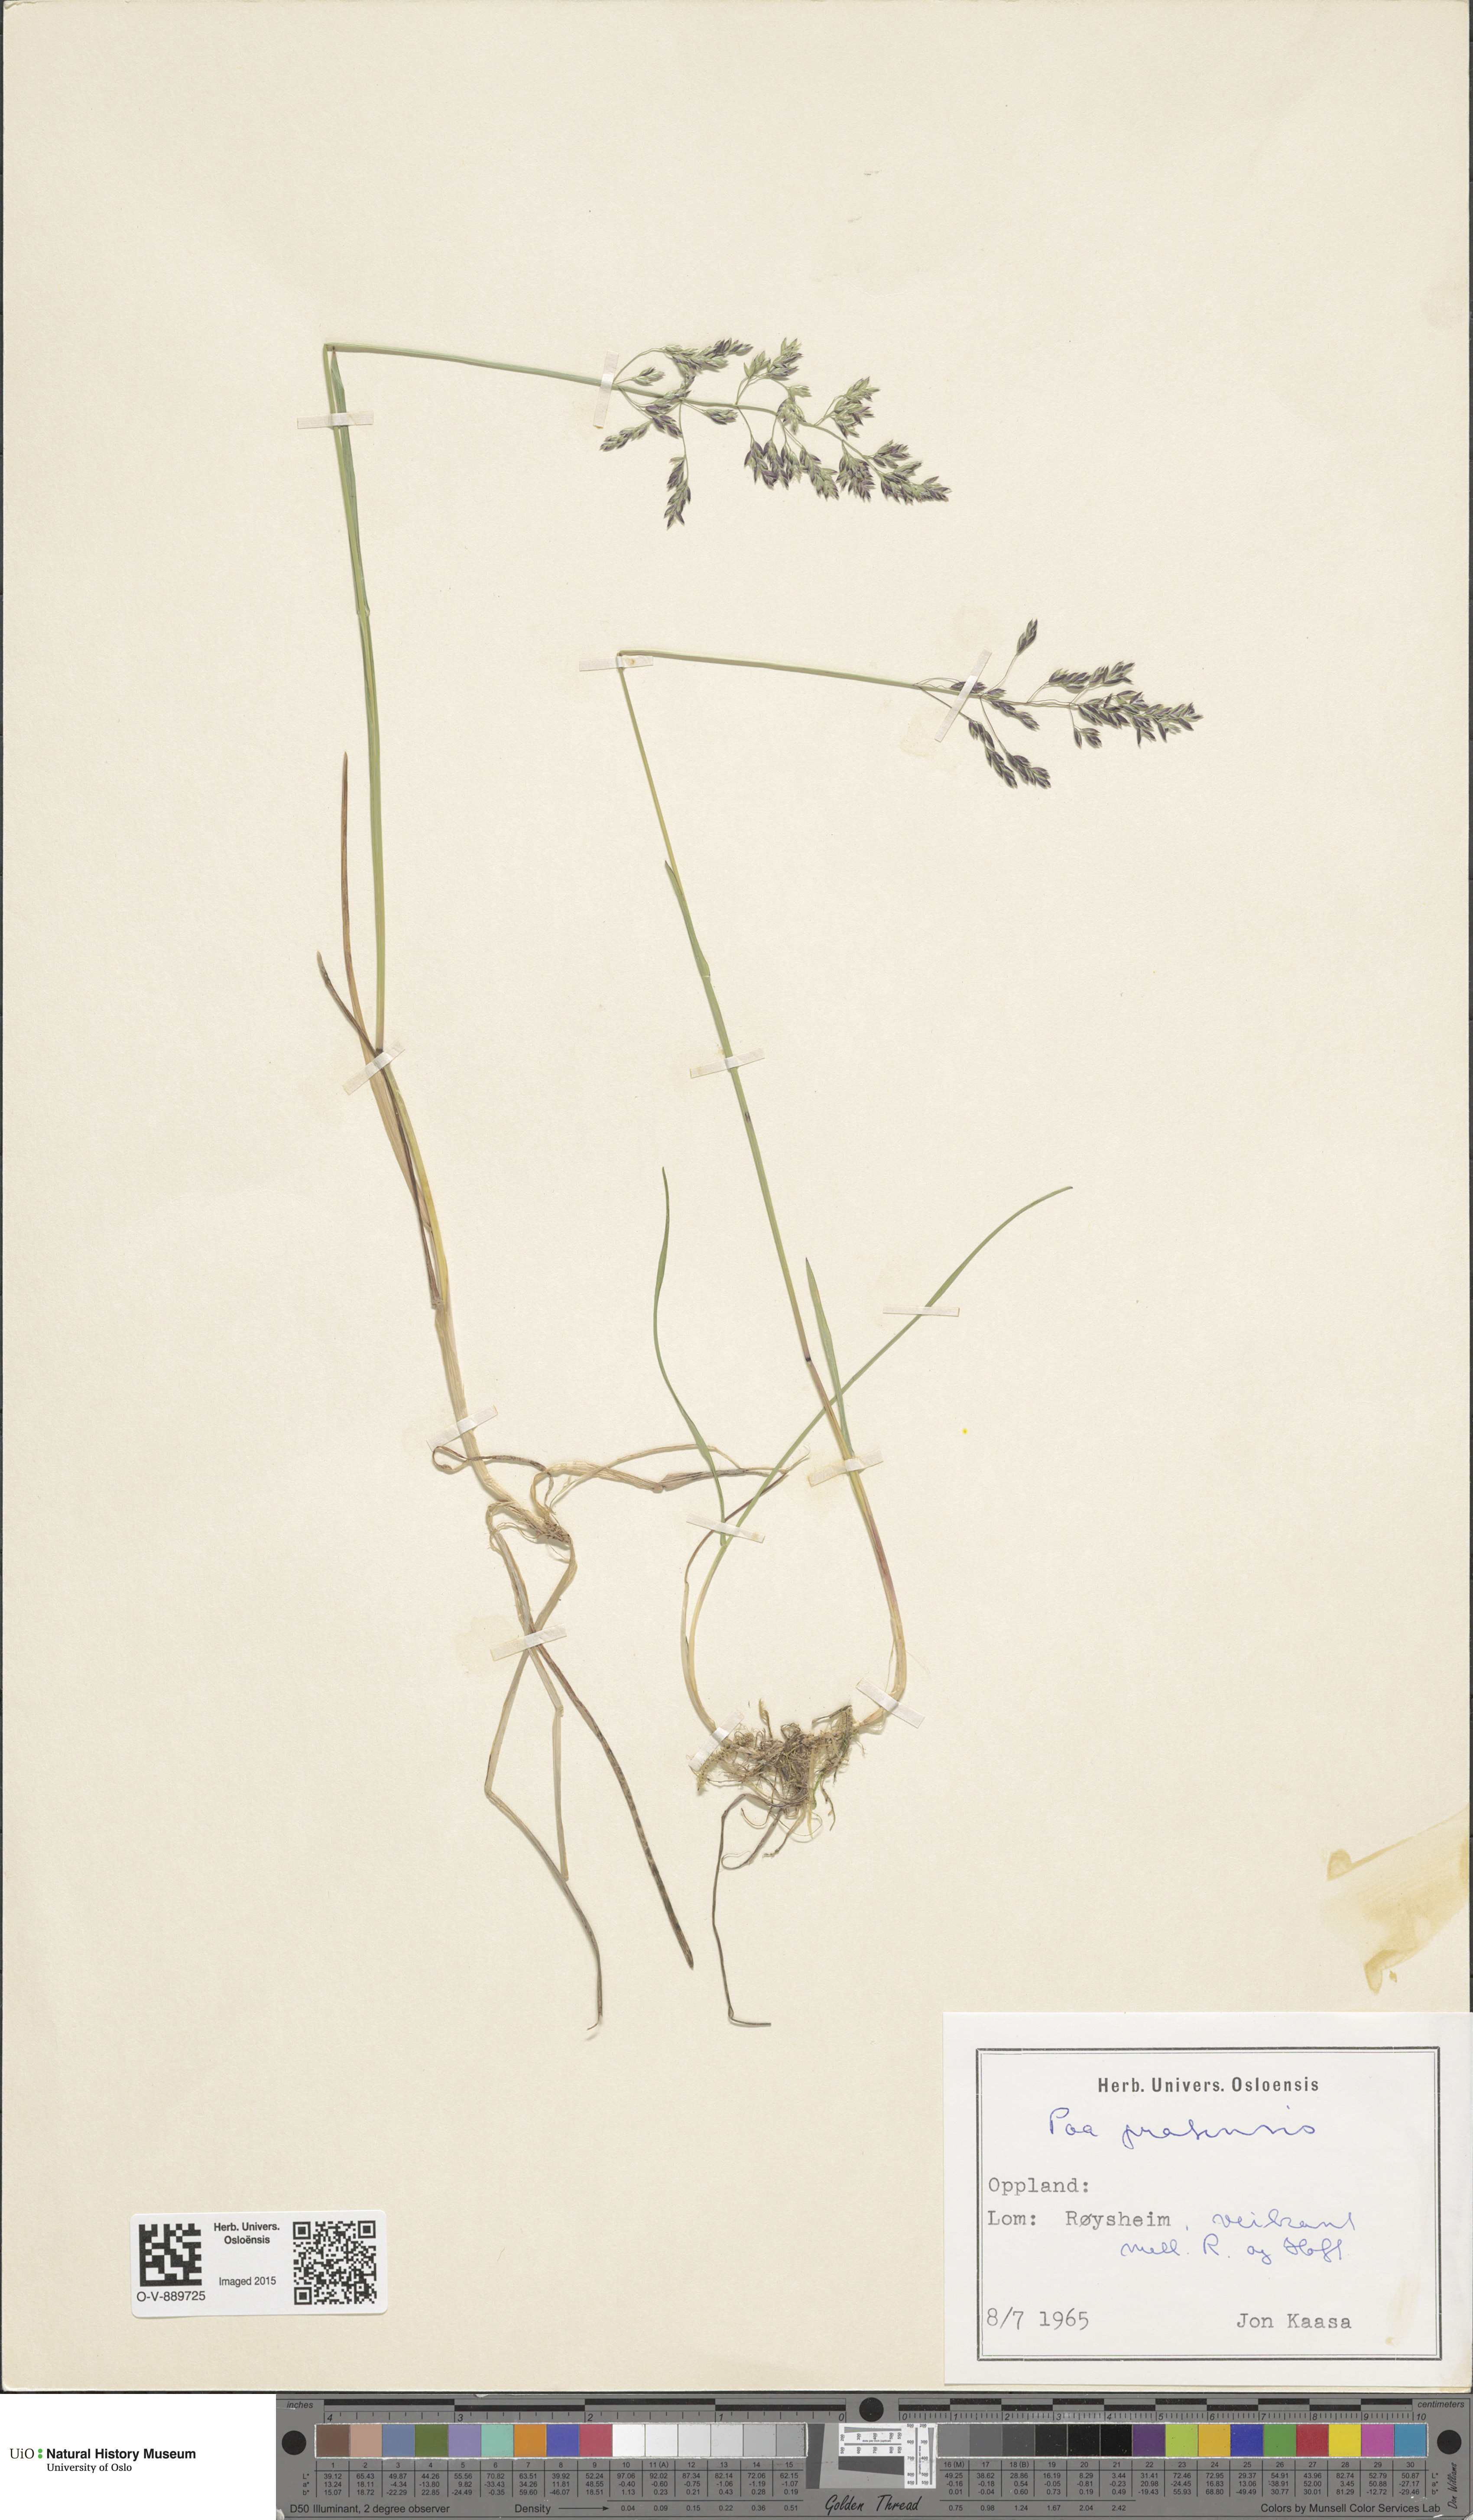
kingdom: Plantae
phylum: Tracheophyta
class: Liliopsida
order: Poales
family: Poaceae
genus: Poa
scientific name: Poa pratensis
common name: Kentucky bluegrass
